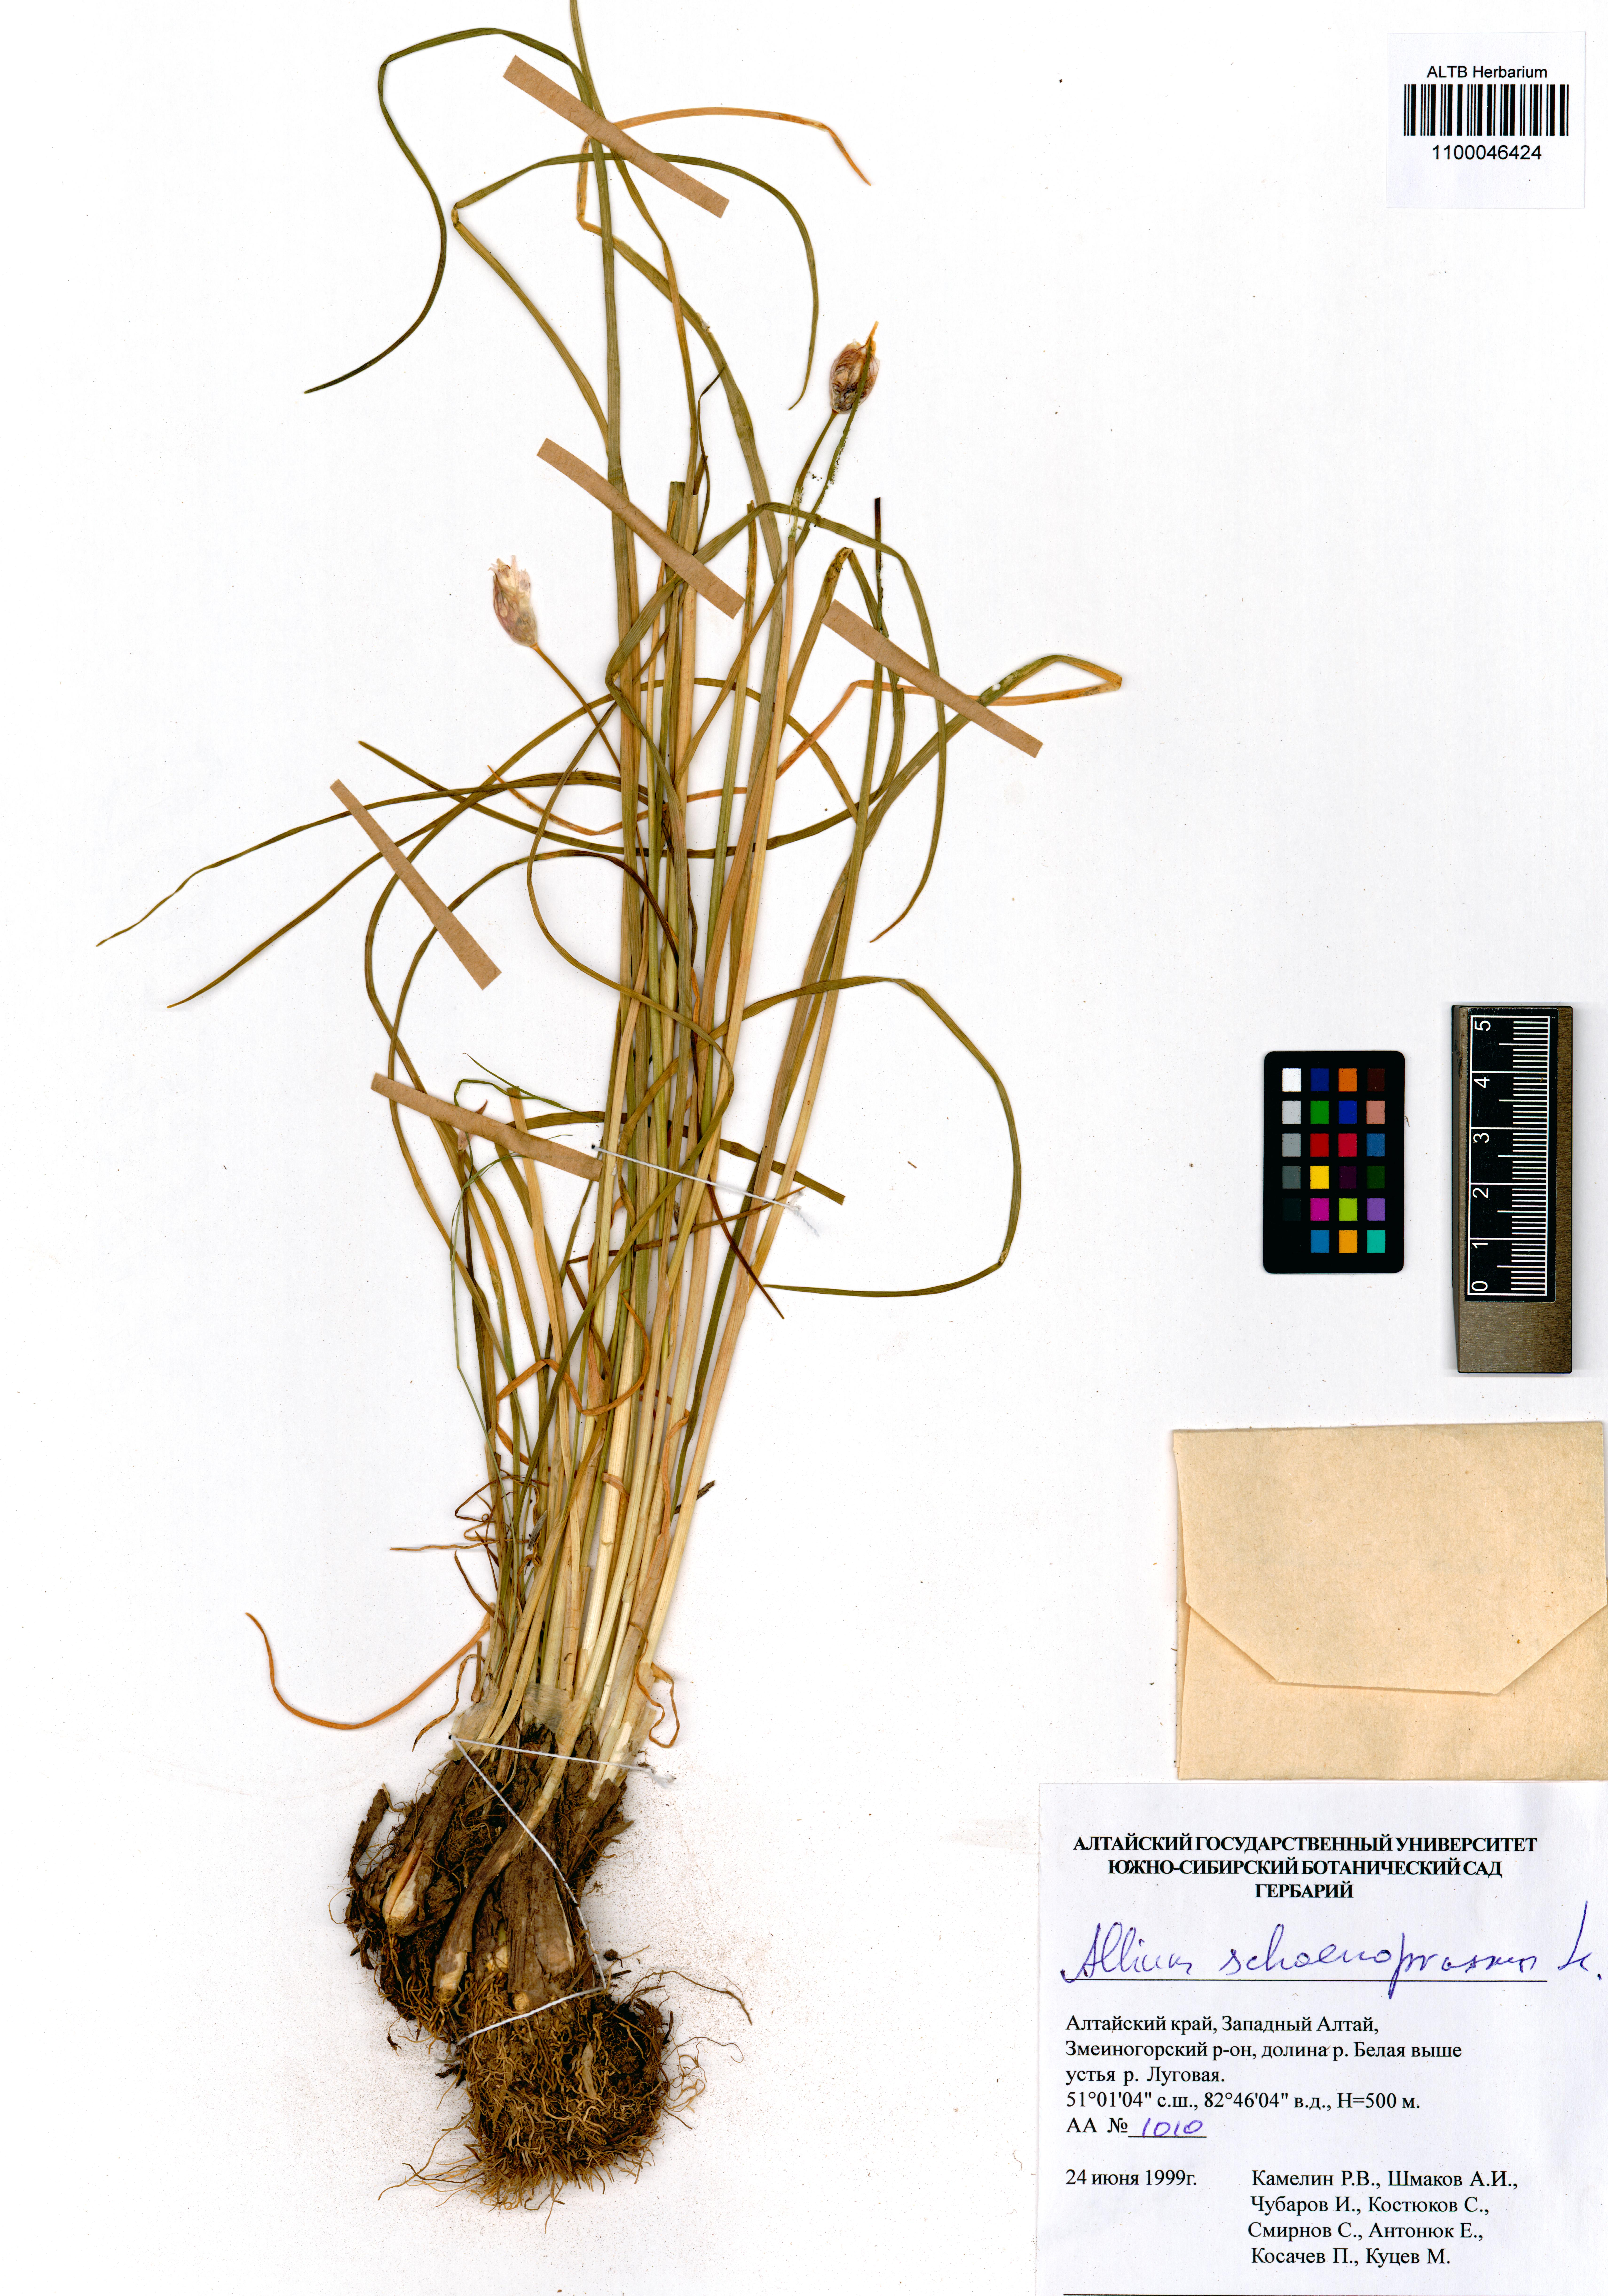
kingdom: Plantae
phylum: Tracheophyta
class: Liliopsida
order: Asparagales
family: Amaryllidaceae
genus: Allium
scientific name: Allium schoenoprasum
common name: Chives
